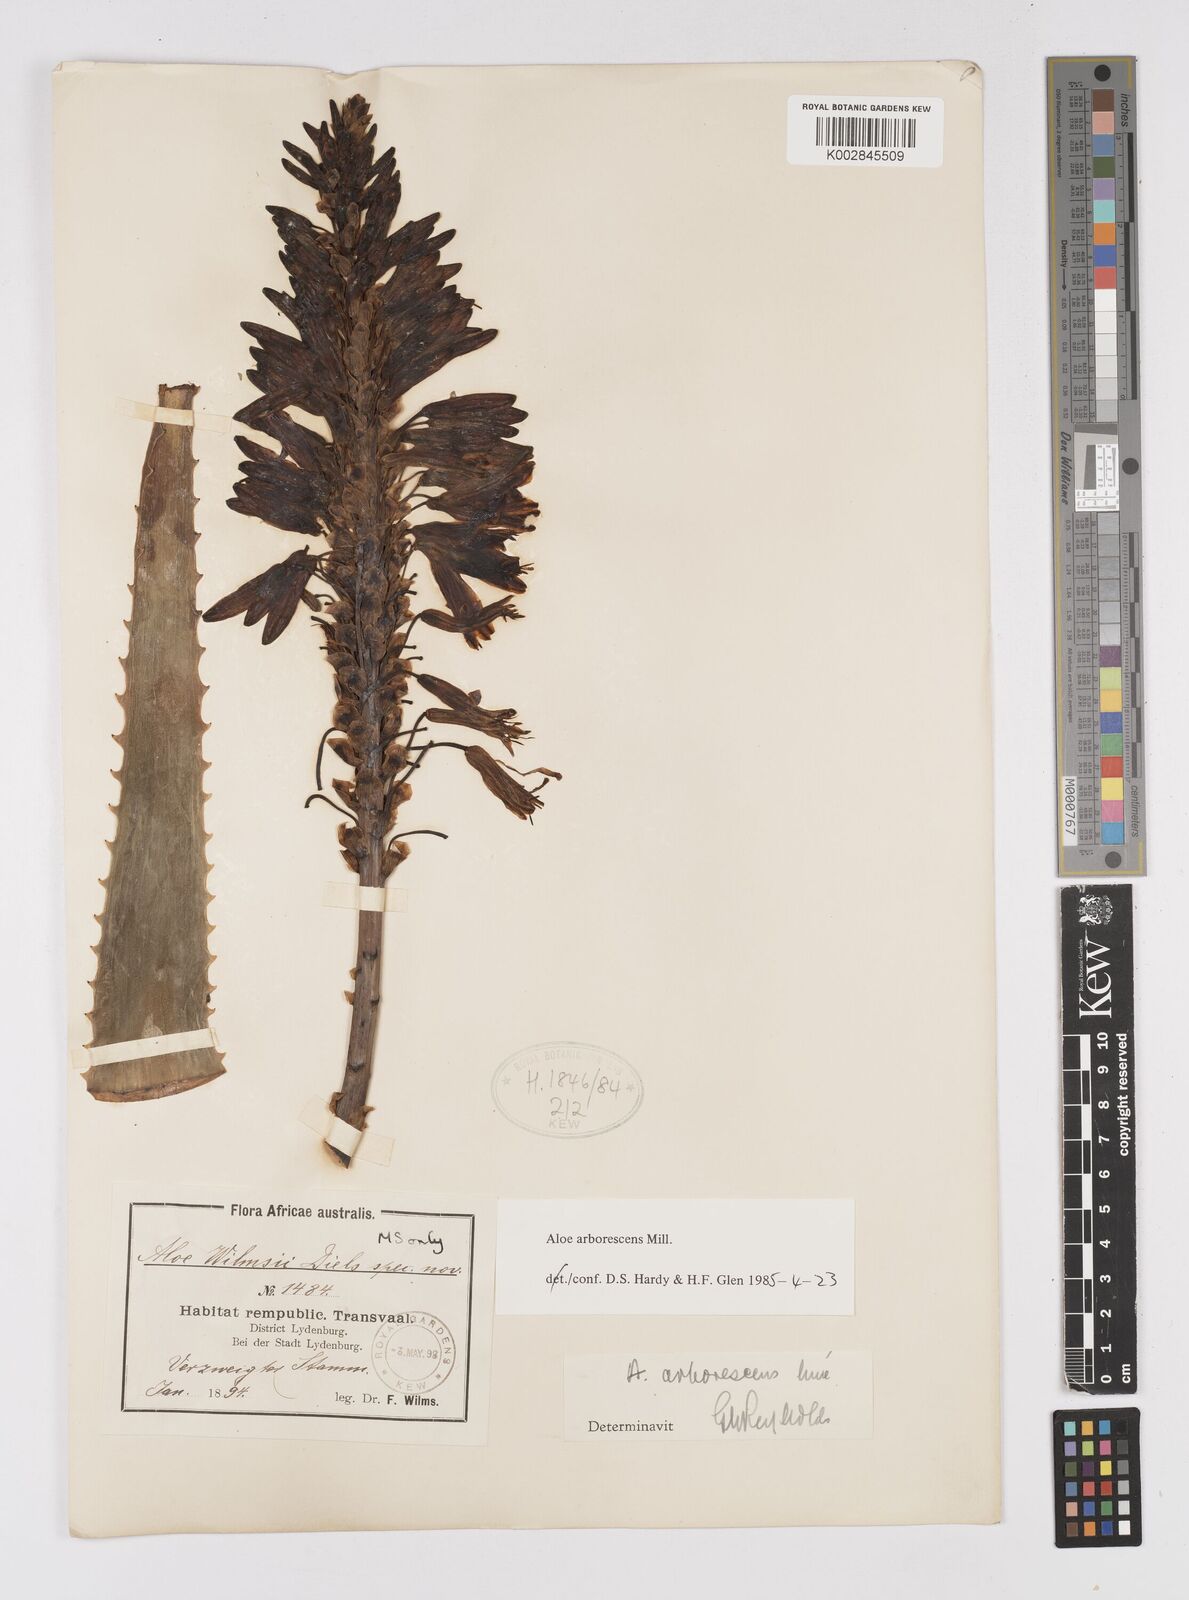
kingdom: Plantae
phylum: Tracheophyta
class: Liliopsida
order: Asparagales
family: Asphodelaceae
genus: Aloe
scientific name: Aloe arborescens
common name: Candelabra aloe
